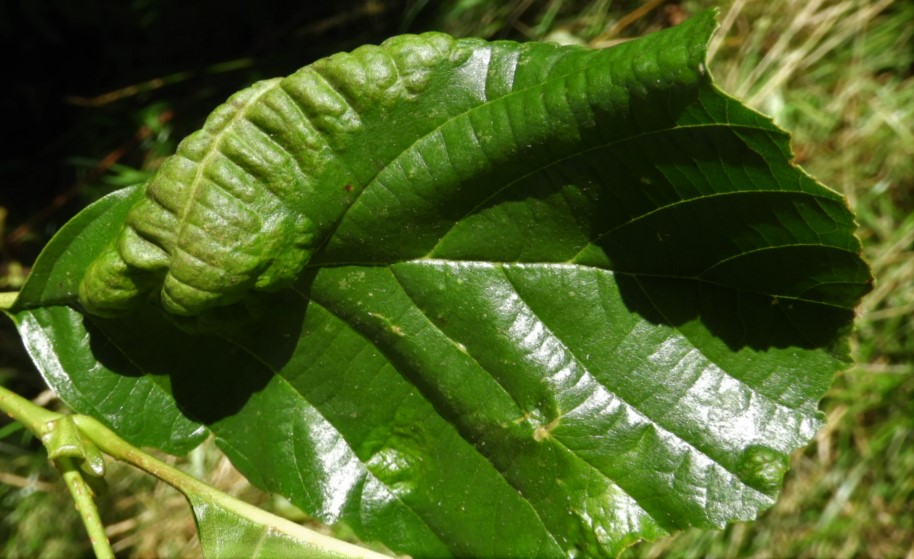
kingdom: Fungi
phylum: Ascomycota
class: Taphrinomycetes
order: Taphrinales
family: Taphrinaceae
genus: Taphrina
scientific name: Taphrina tosquinetii
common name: Alder wrinkle
